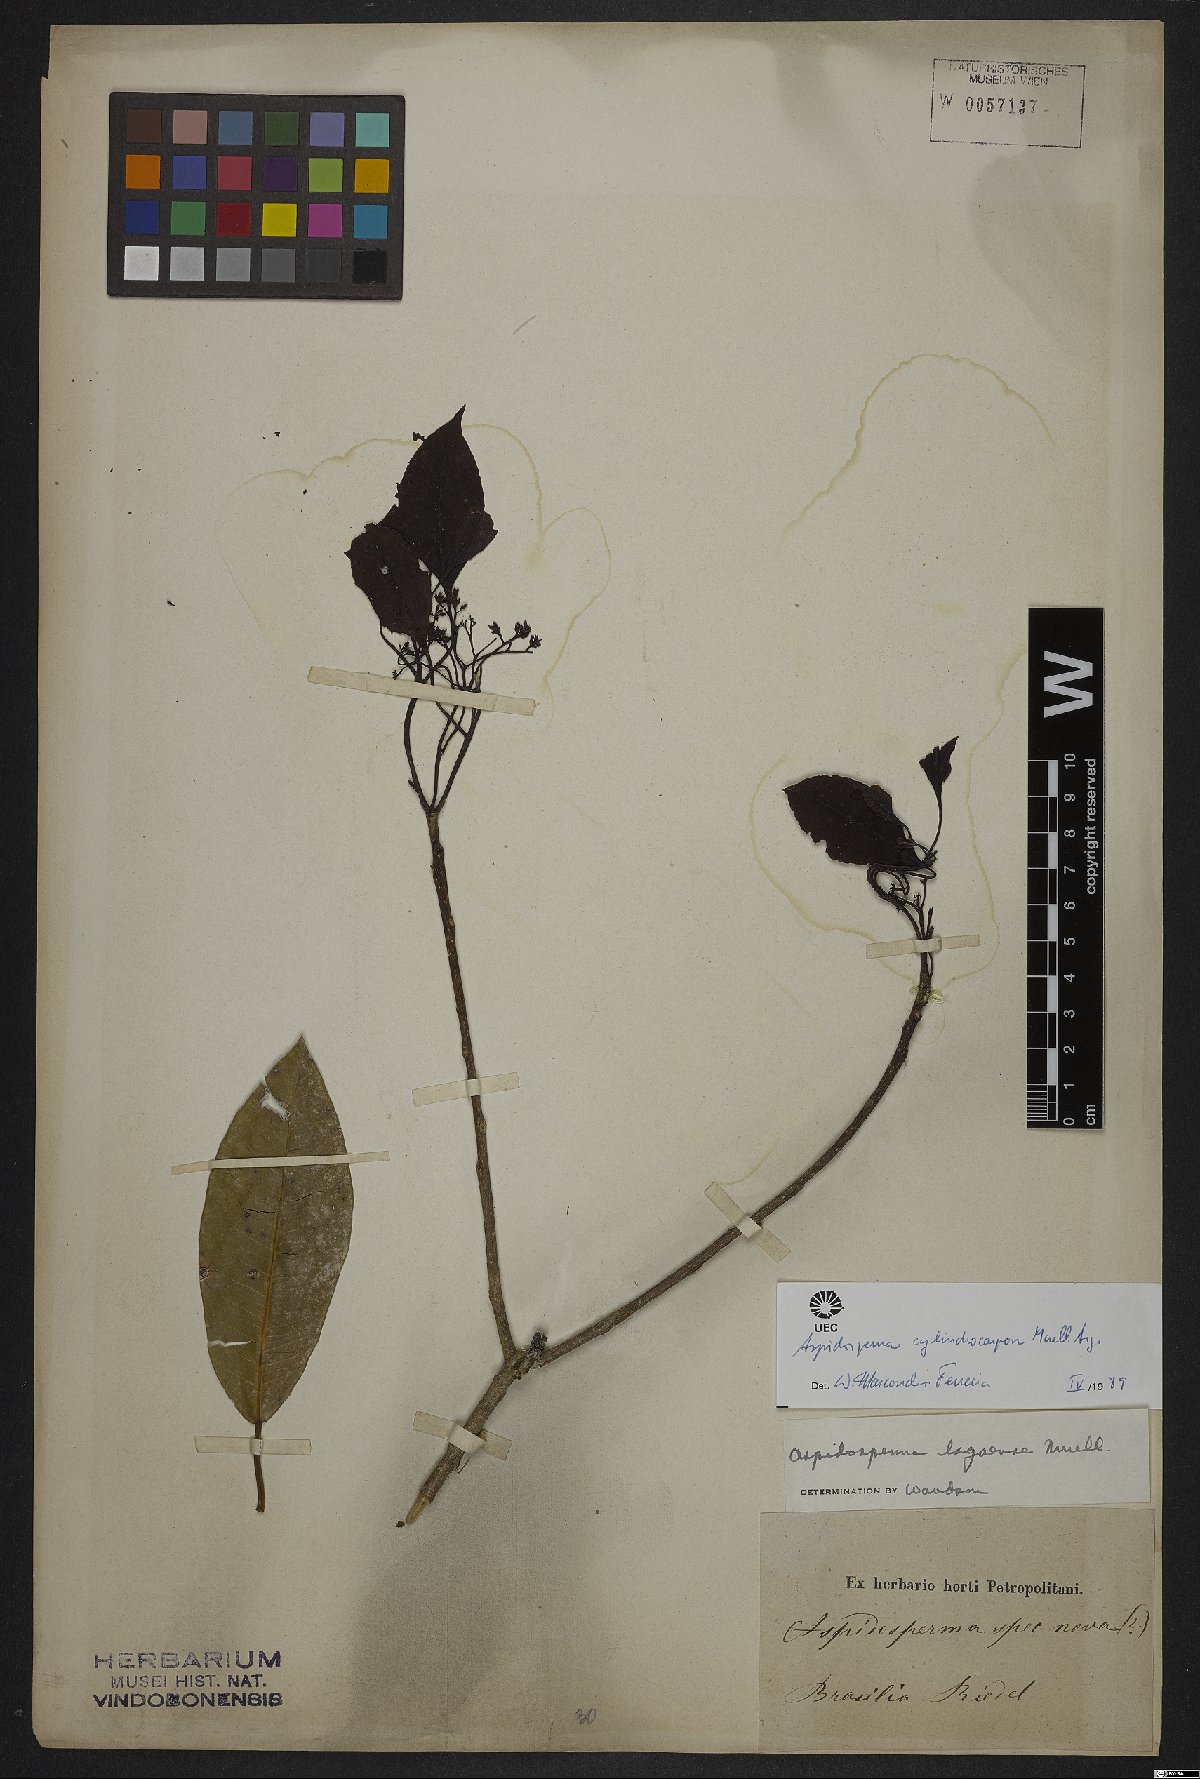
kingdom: Plantae
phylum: Tracheophyta
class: Magnoliopsida
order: Gentianales
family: Apocynaceae
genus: Aspidosperma
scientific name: Aspidosperma cylindrocarpon
